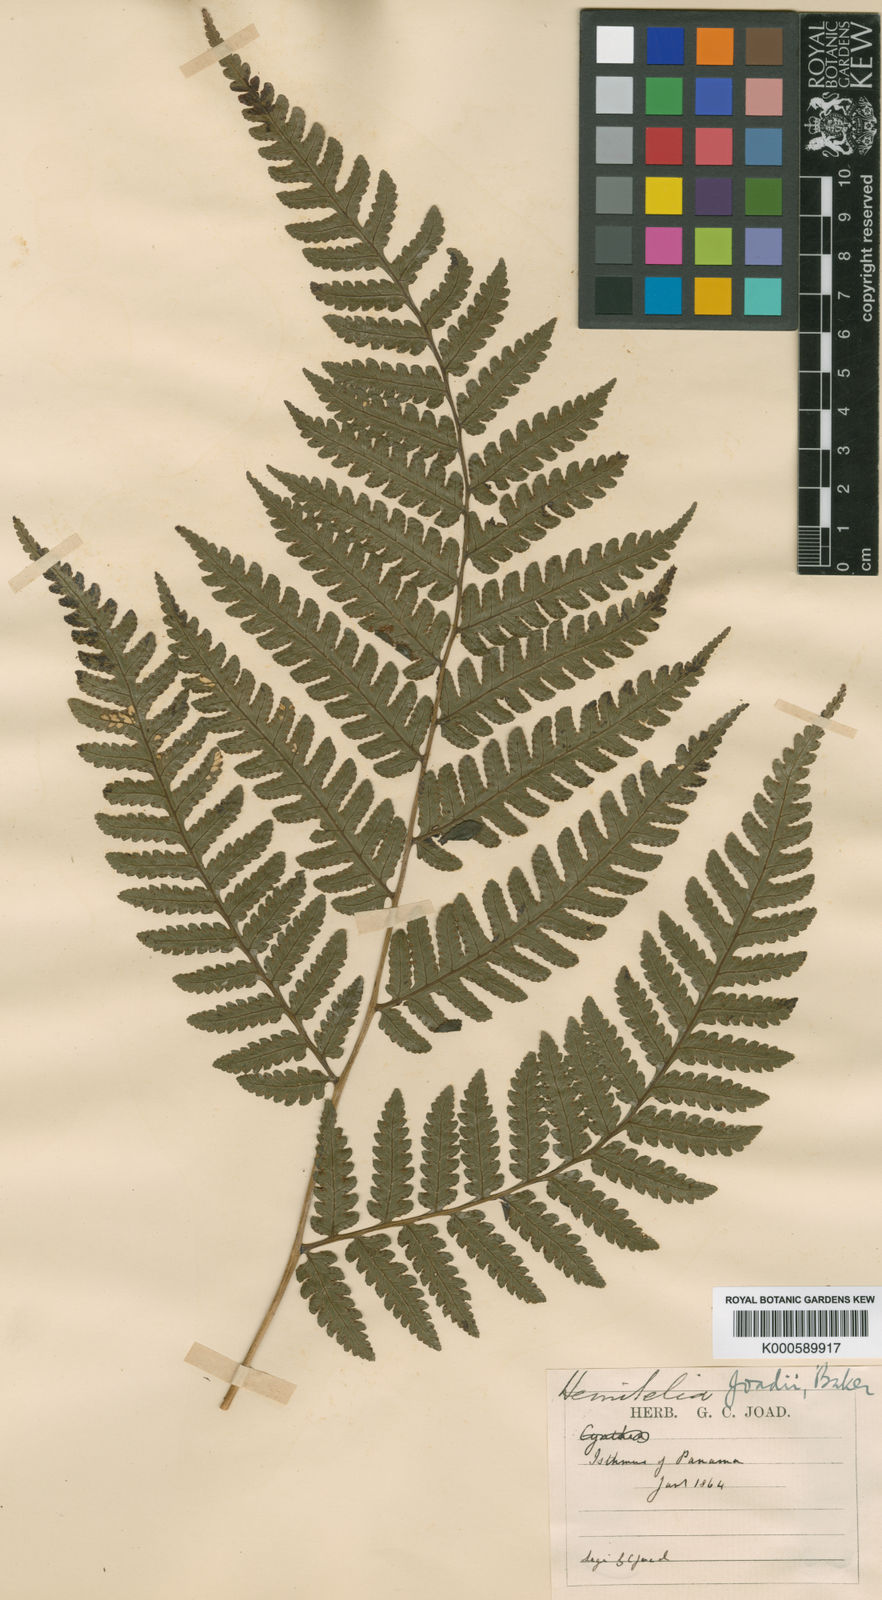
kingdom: Plantae
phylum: Tracheophyta
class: Polypodiopsida
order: Cyatheales
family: Cyatheaceae
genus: Cyathea
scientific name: Cyathea andina
